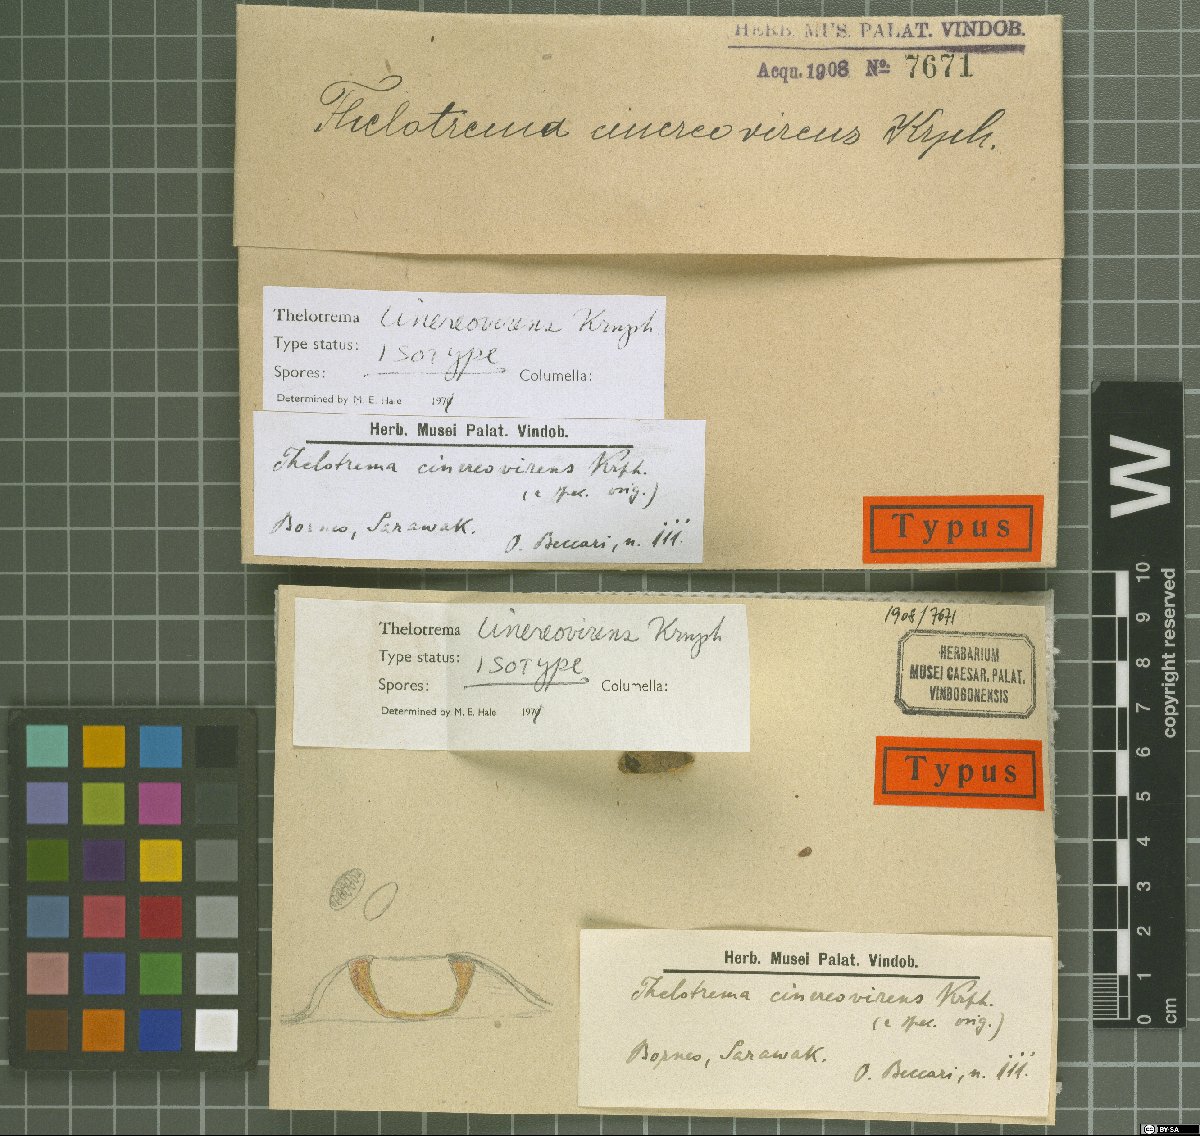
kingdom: Fungi
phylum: Ascomycota
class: Lecanoromycetes
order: Ostropales
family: Graphidaceae
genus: Thelotrema
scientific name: Thelotrema cinereovirens
